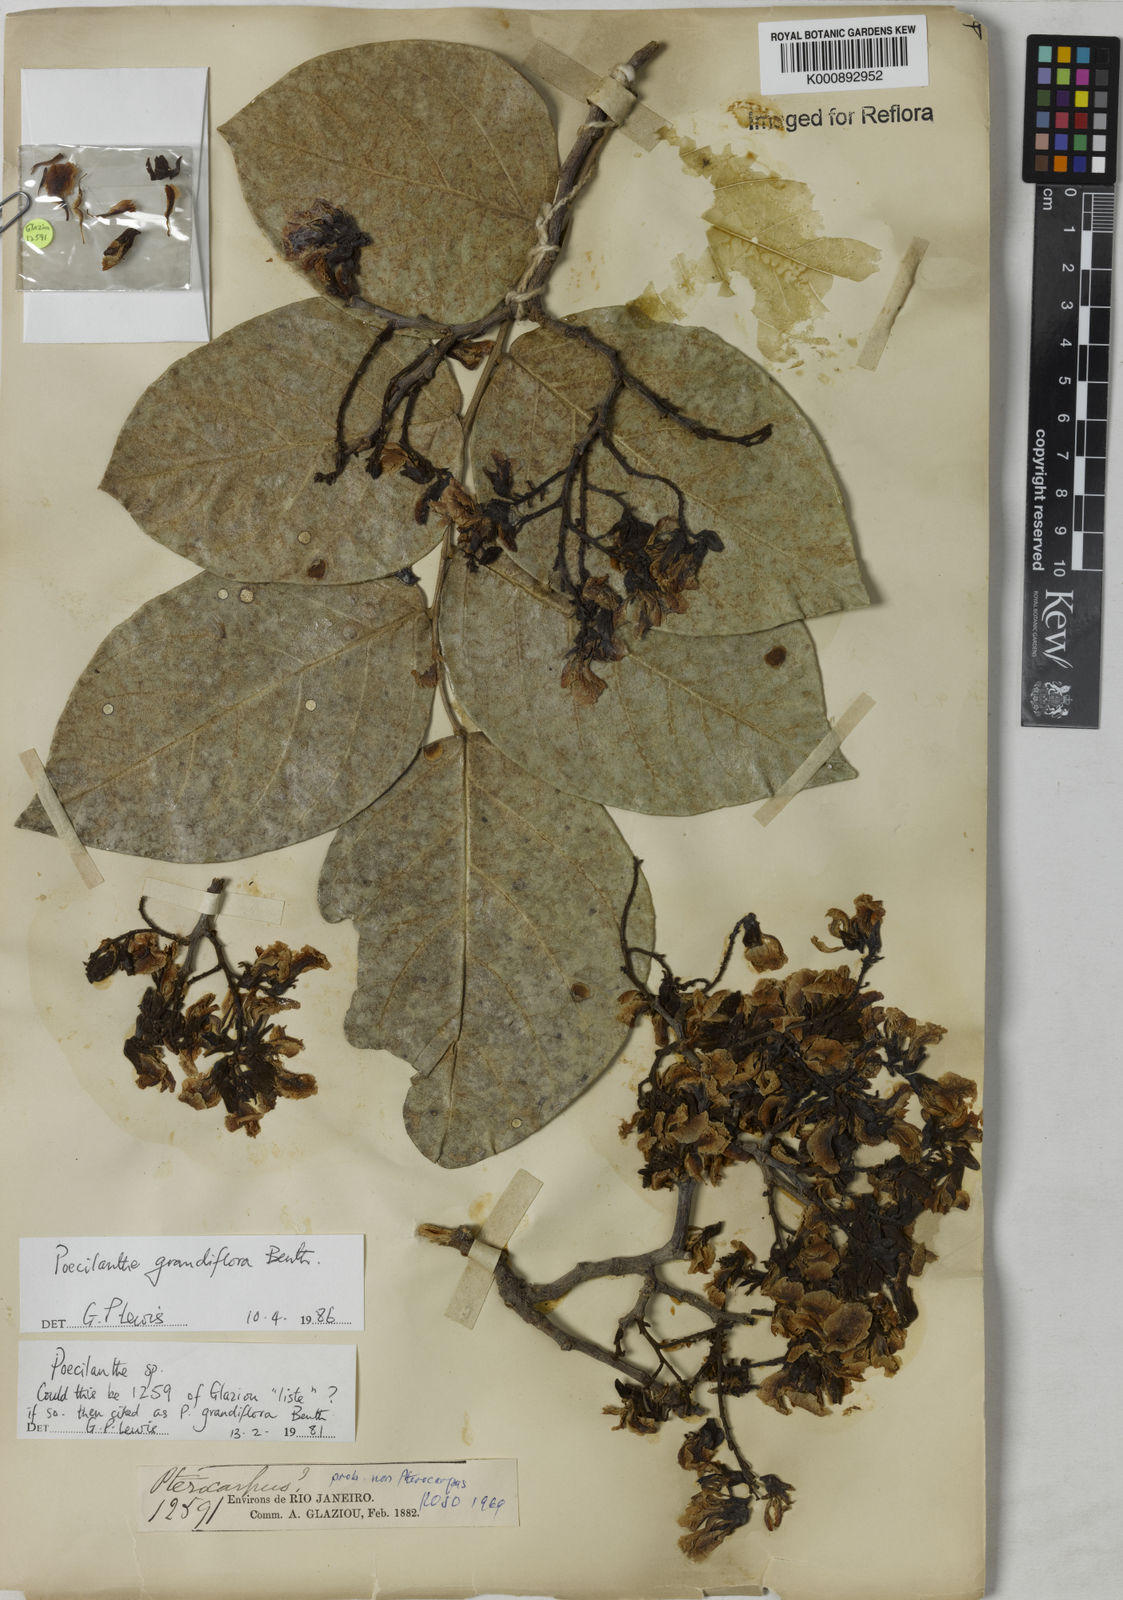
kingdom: Plantae
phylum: Tracheophyta
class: Magnoliopsida
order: Fabales
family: Fabaceae
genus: Poecilanthe
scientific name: Poecilanthe grandiflora
